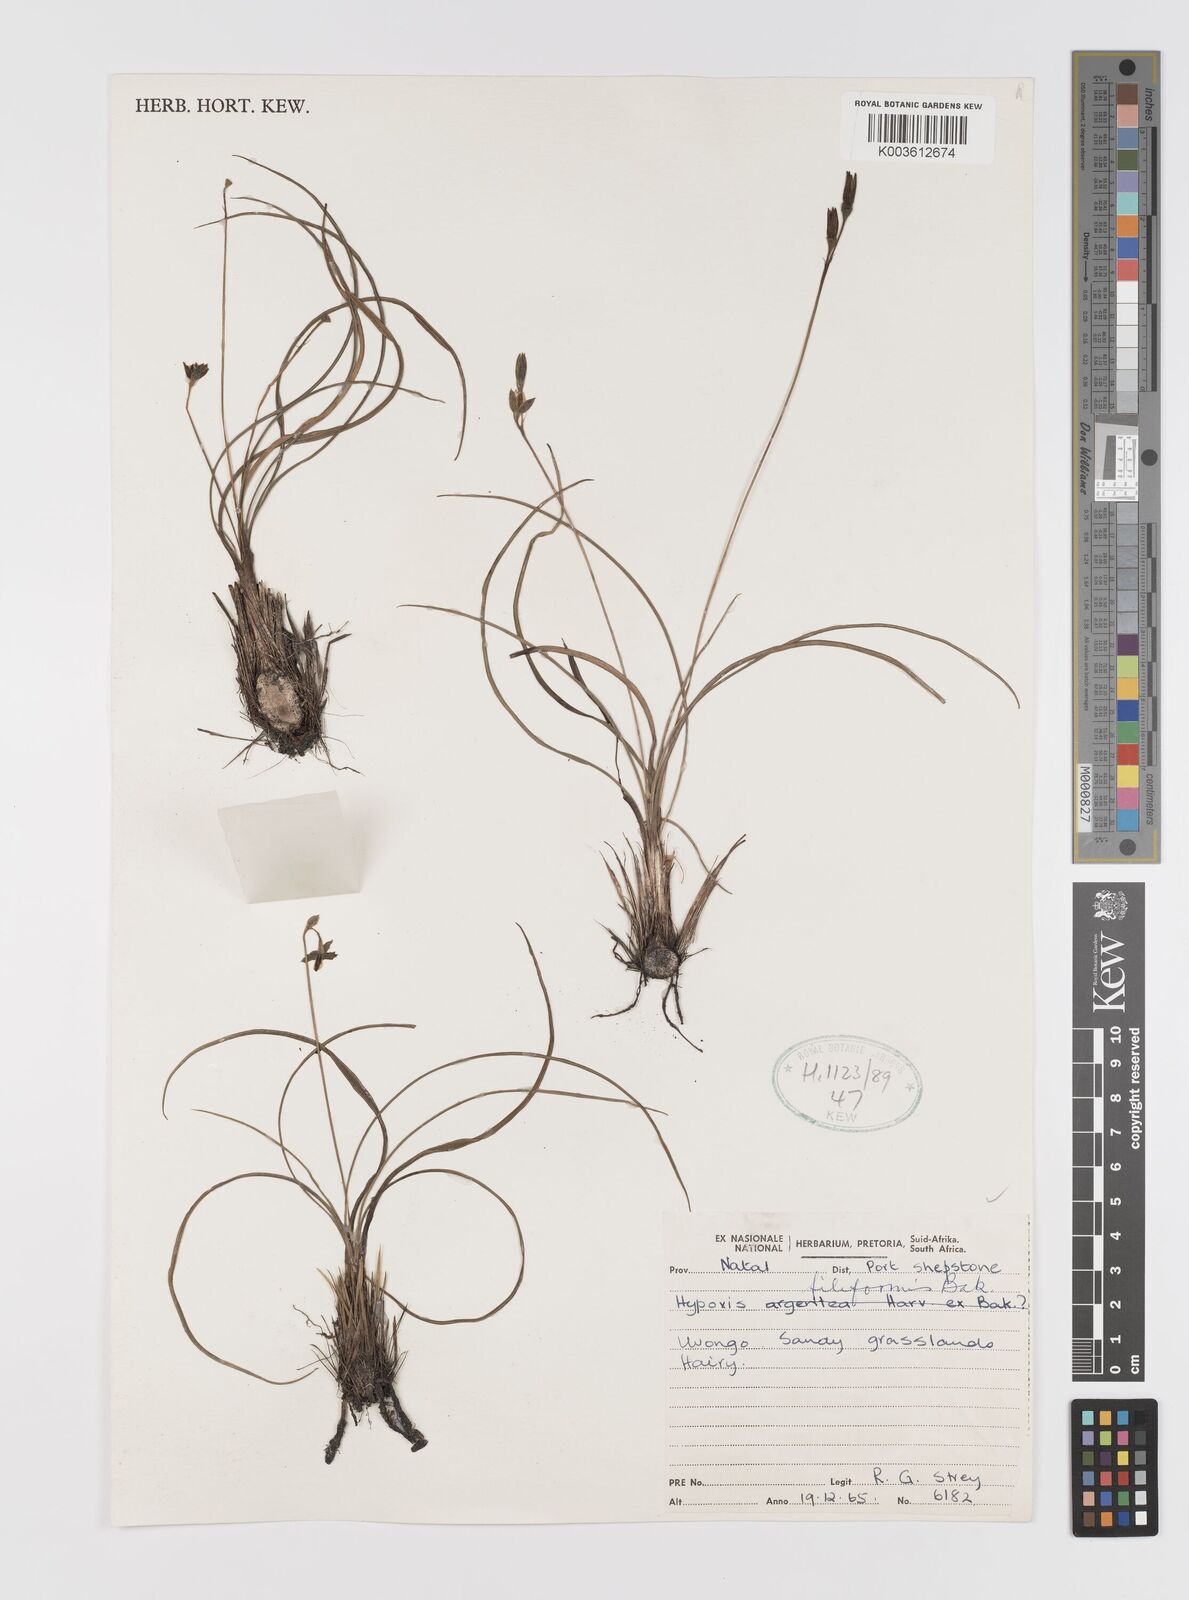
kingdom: Plantae
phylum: Tracheophyta
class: Liliopsida
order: Asparagales
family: Hypoxidaceae
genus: Hypoxis
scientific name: Hypoxis filiformis
